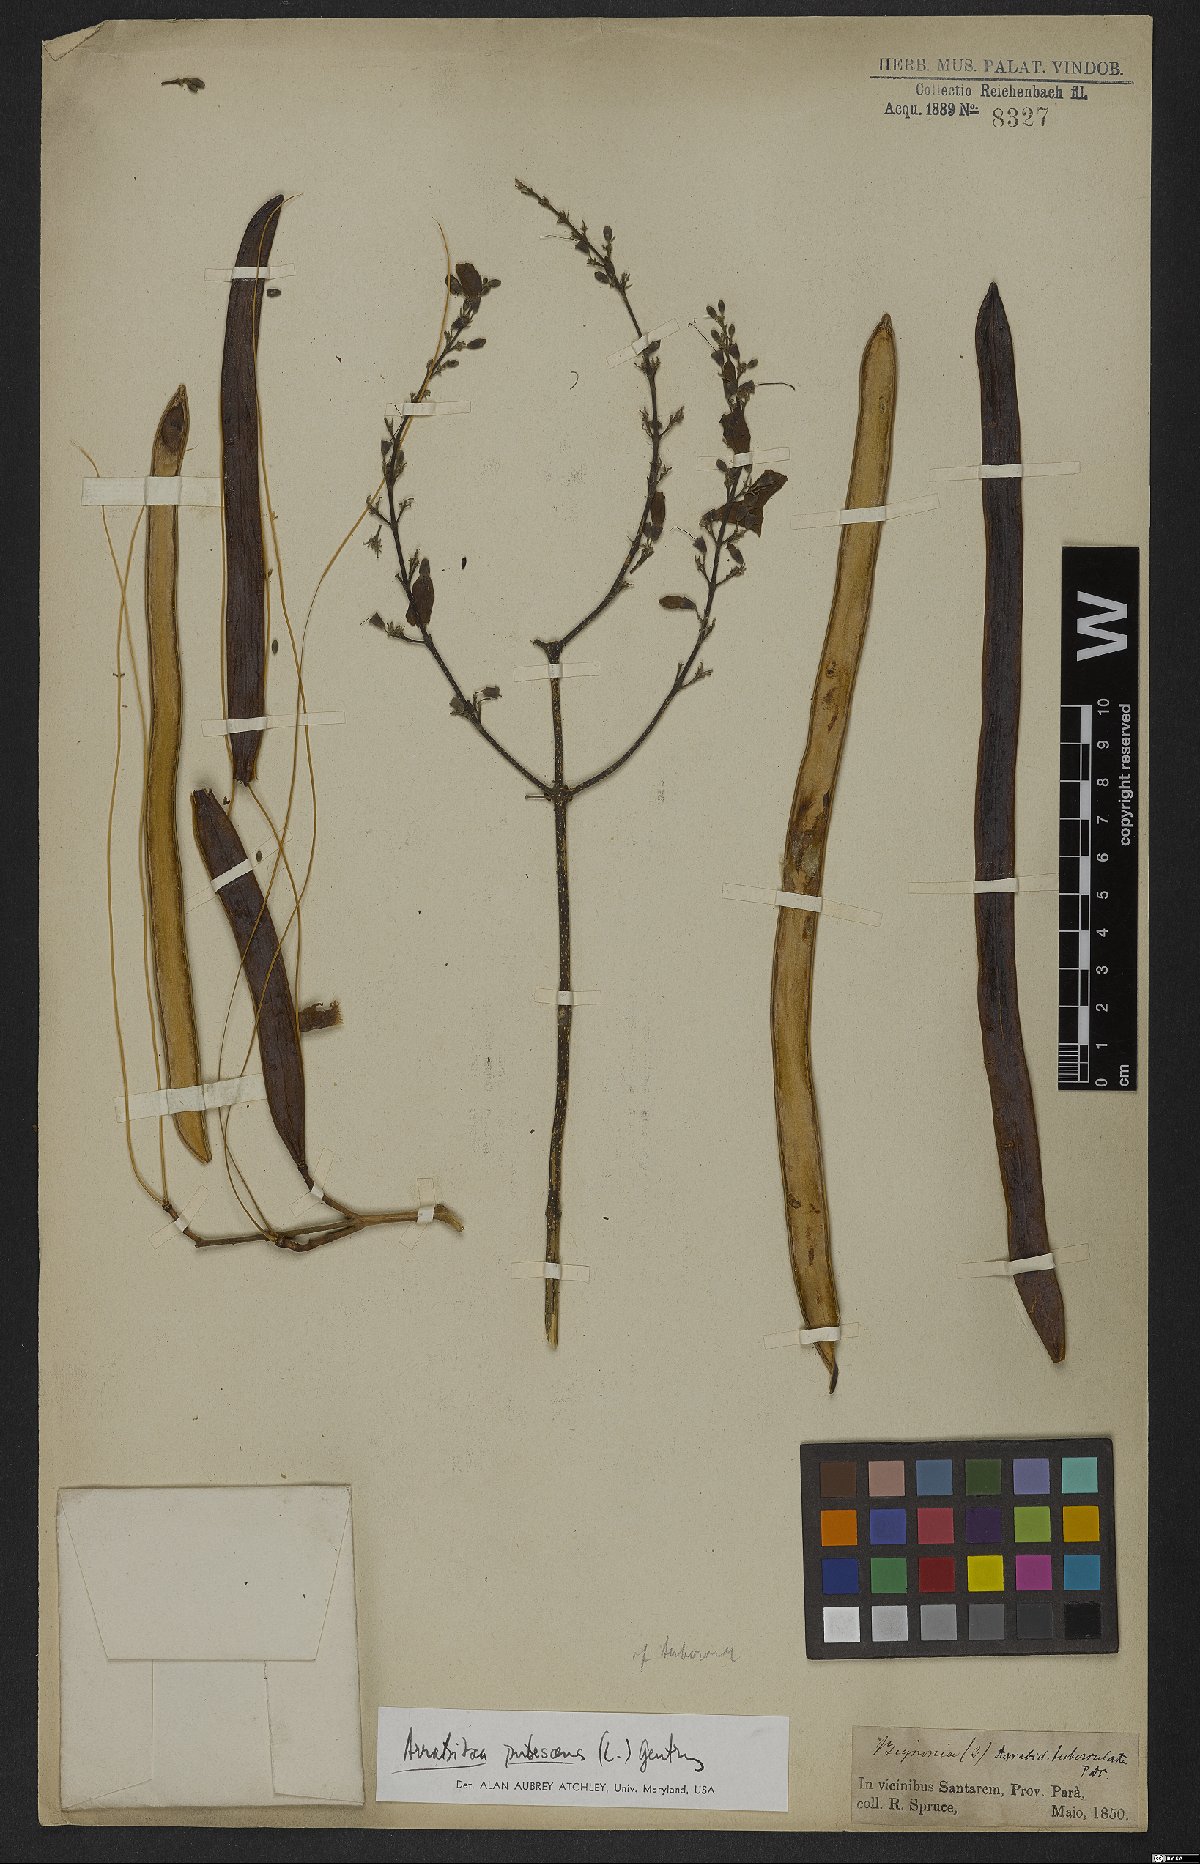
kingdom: Plantae
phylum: Tracheophyta
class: Magnoliopsida
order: Lamiales
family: Bignoniaceae
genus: Fridericia
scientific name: Fridericia pubescens
